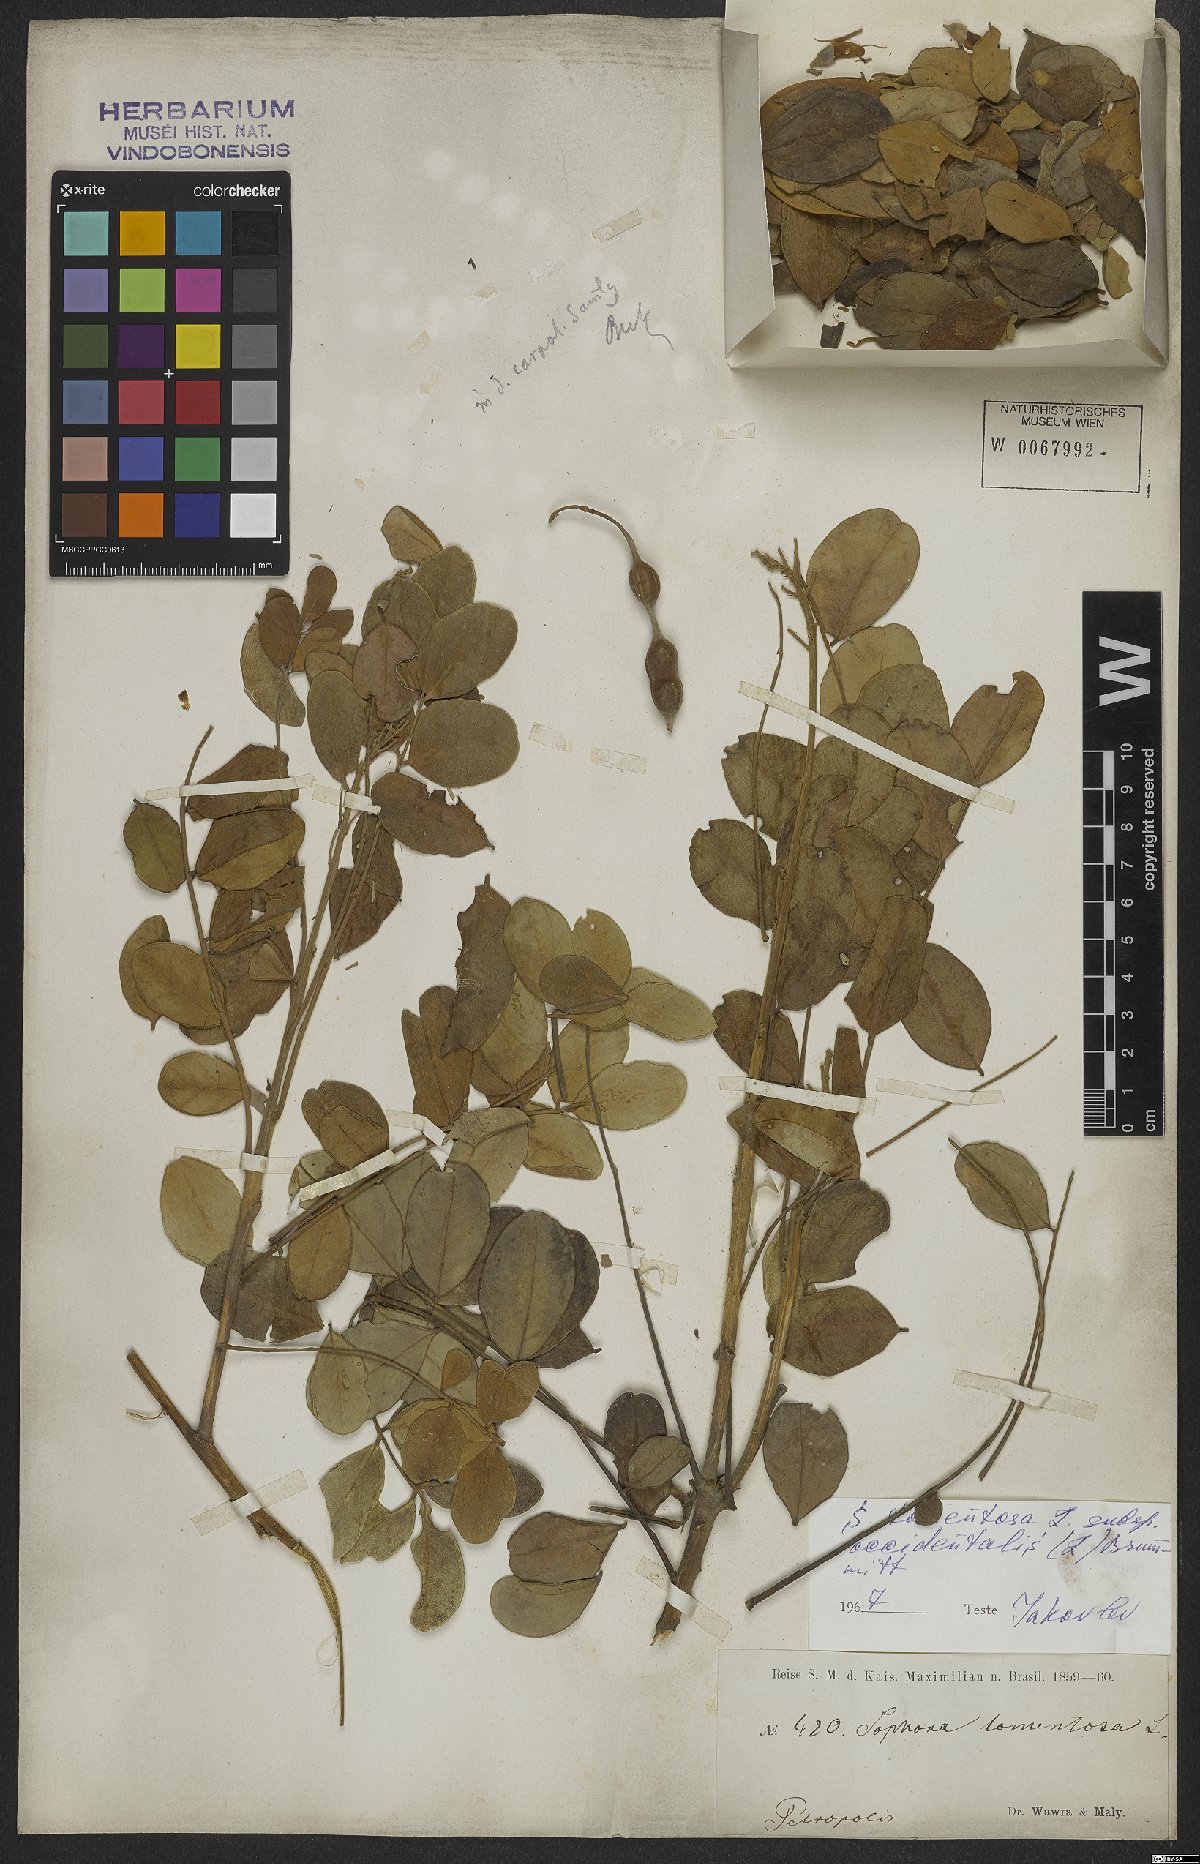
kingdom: Plantae
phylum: Tracheophyta
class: Magnoliopsida
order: Fabales
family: Fabaceae
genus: Sophora
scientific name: Sophora tomentosa
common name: Yellow necklacepod
